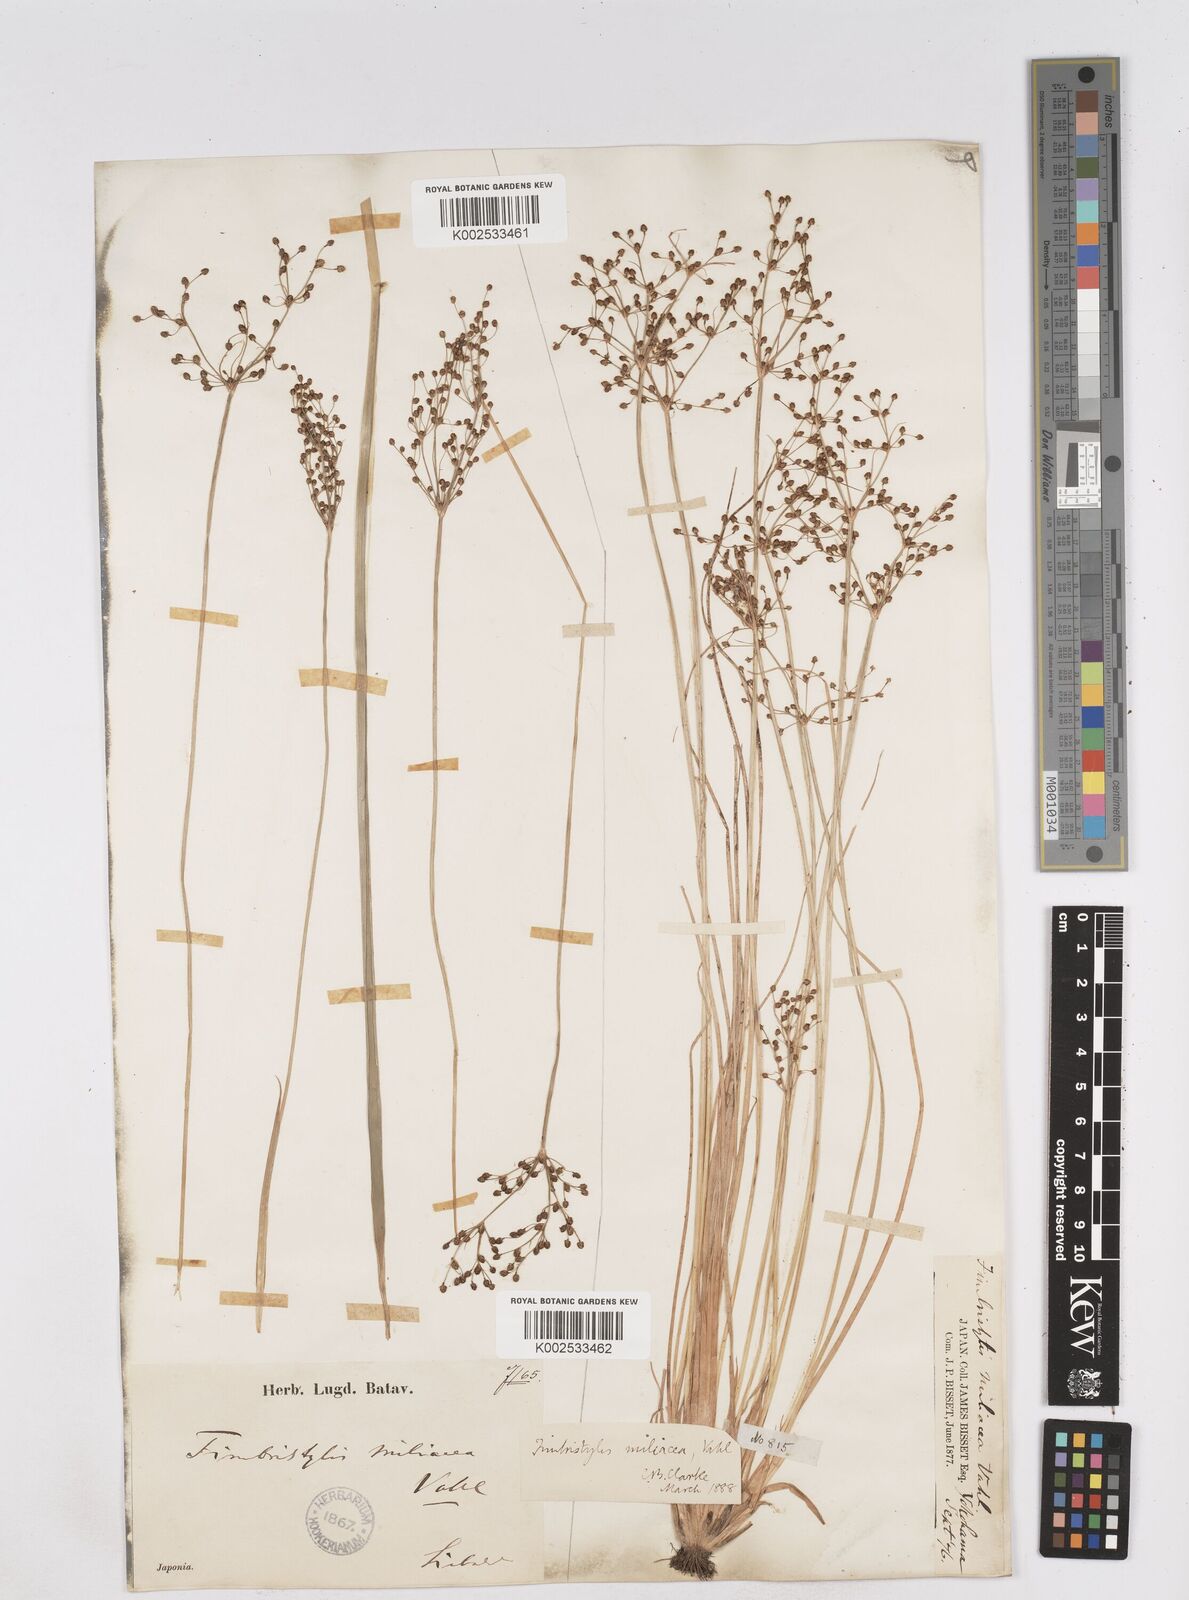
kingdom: Plantae
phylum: Tracheophyta
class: Liliopsida
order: Poales
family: Cyperaceae
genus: Fimbristylis
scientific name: Fimbristylis quinquangularis
